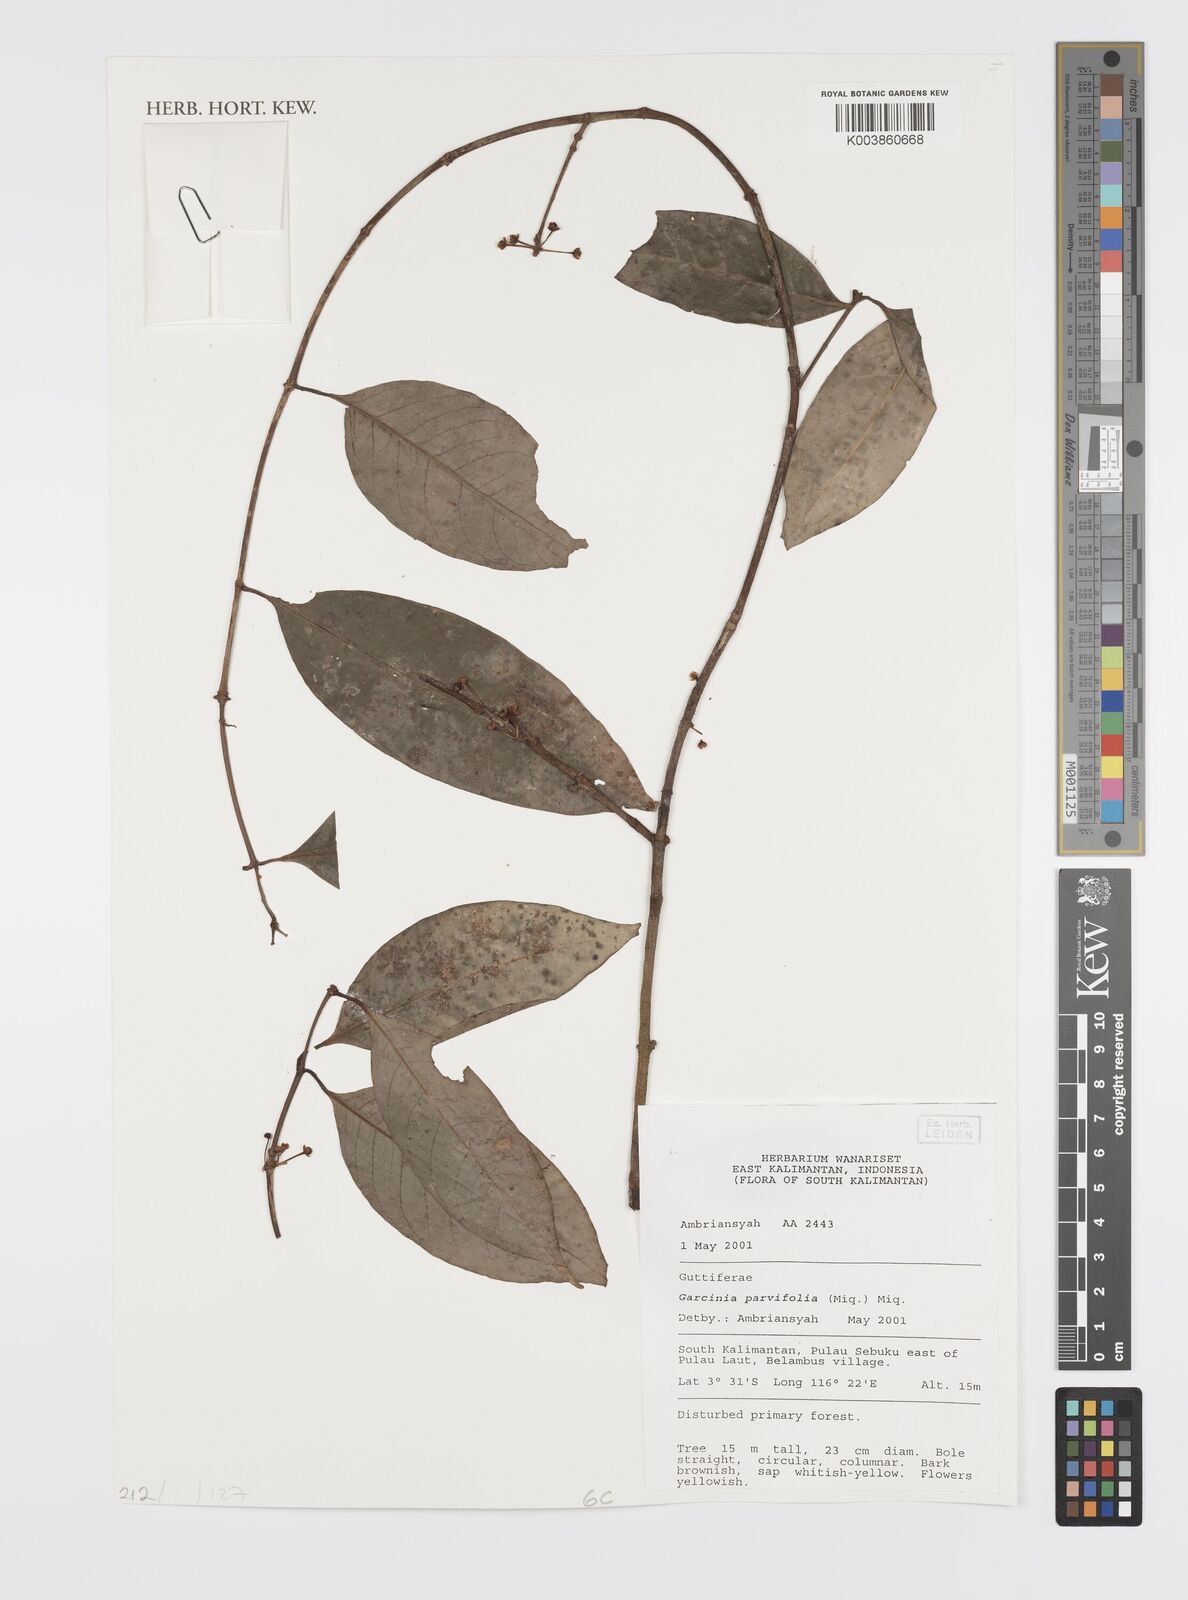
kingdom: Plantae
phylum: Tracheophyta
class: Magnoliopsida
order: Malpighiales
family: Clusiaceae
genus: Garcinia
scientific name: Garcinia parvifolia
